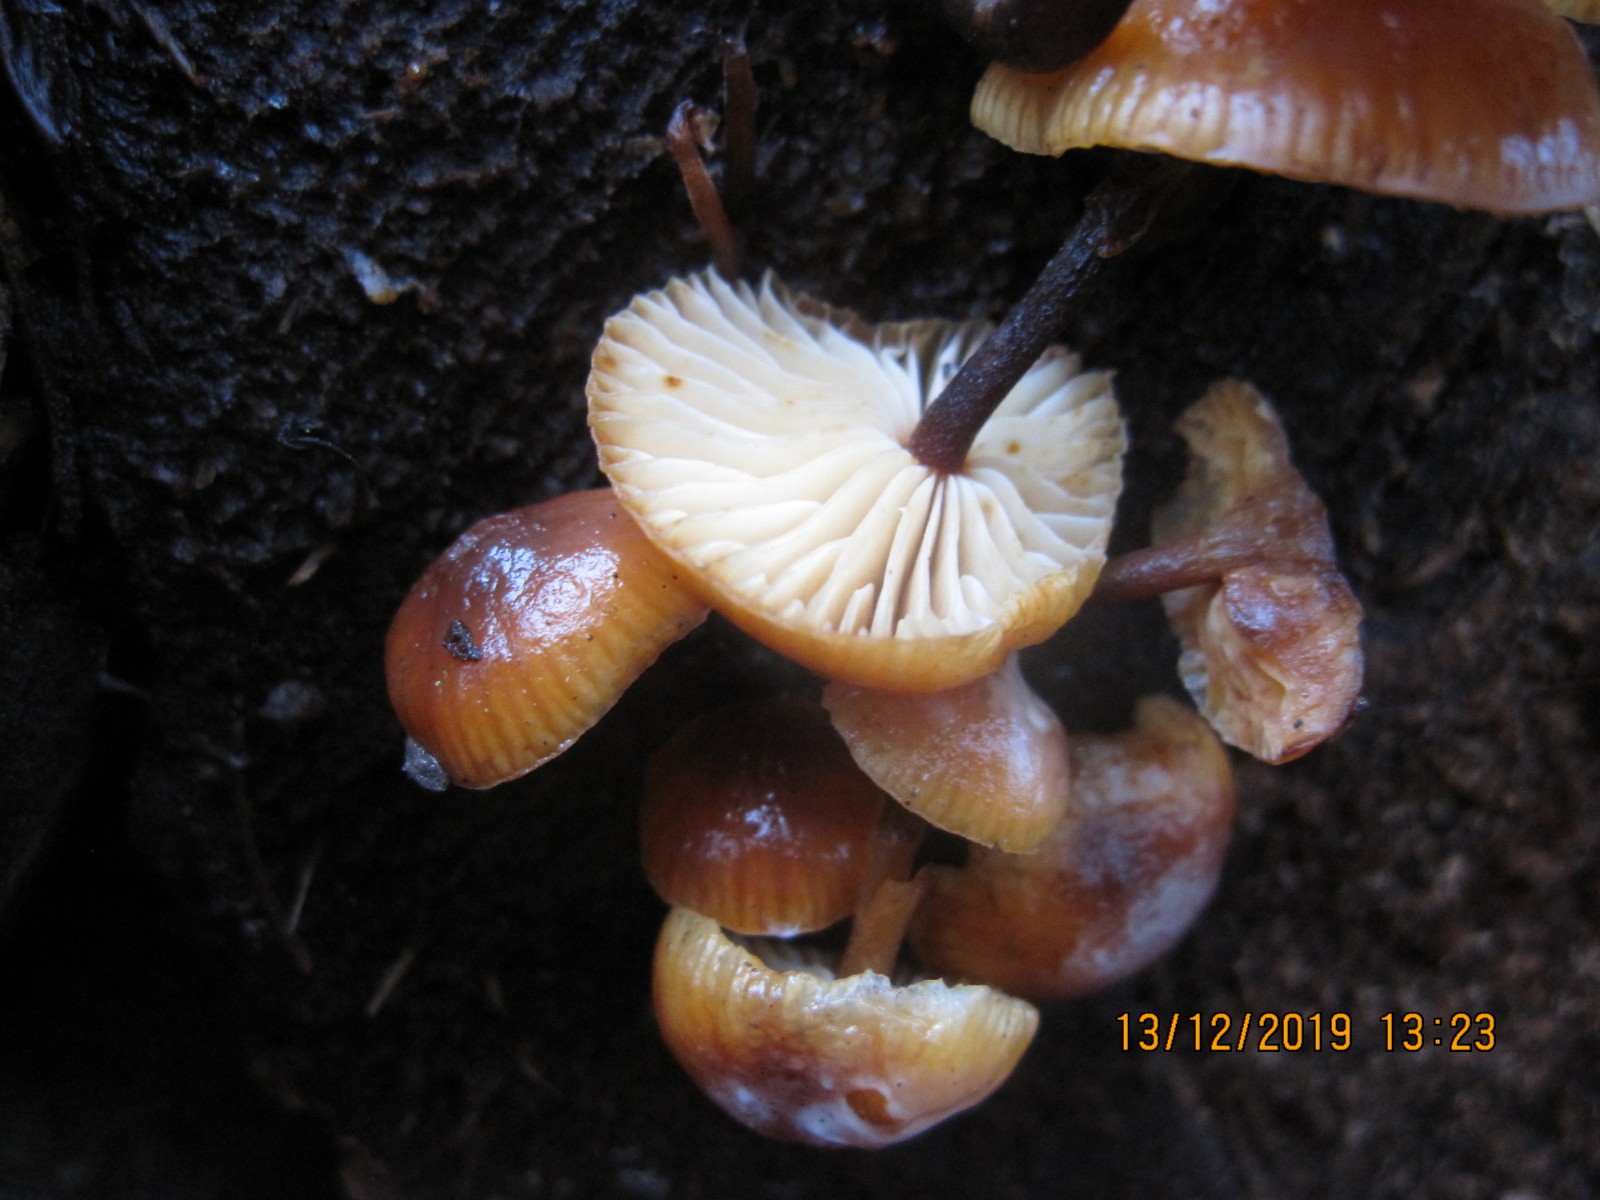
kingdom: Fungi
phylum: Basidiomycota
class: Agaricomycetes
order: Agaricales
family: Physalacriaceae
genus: Flammulina
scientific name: Flammulina velutipes
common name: gul fløjlsfod
